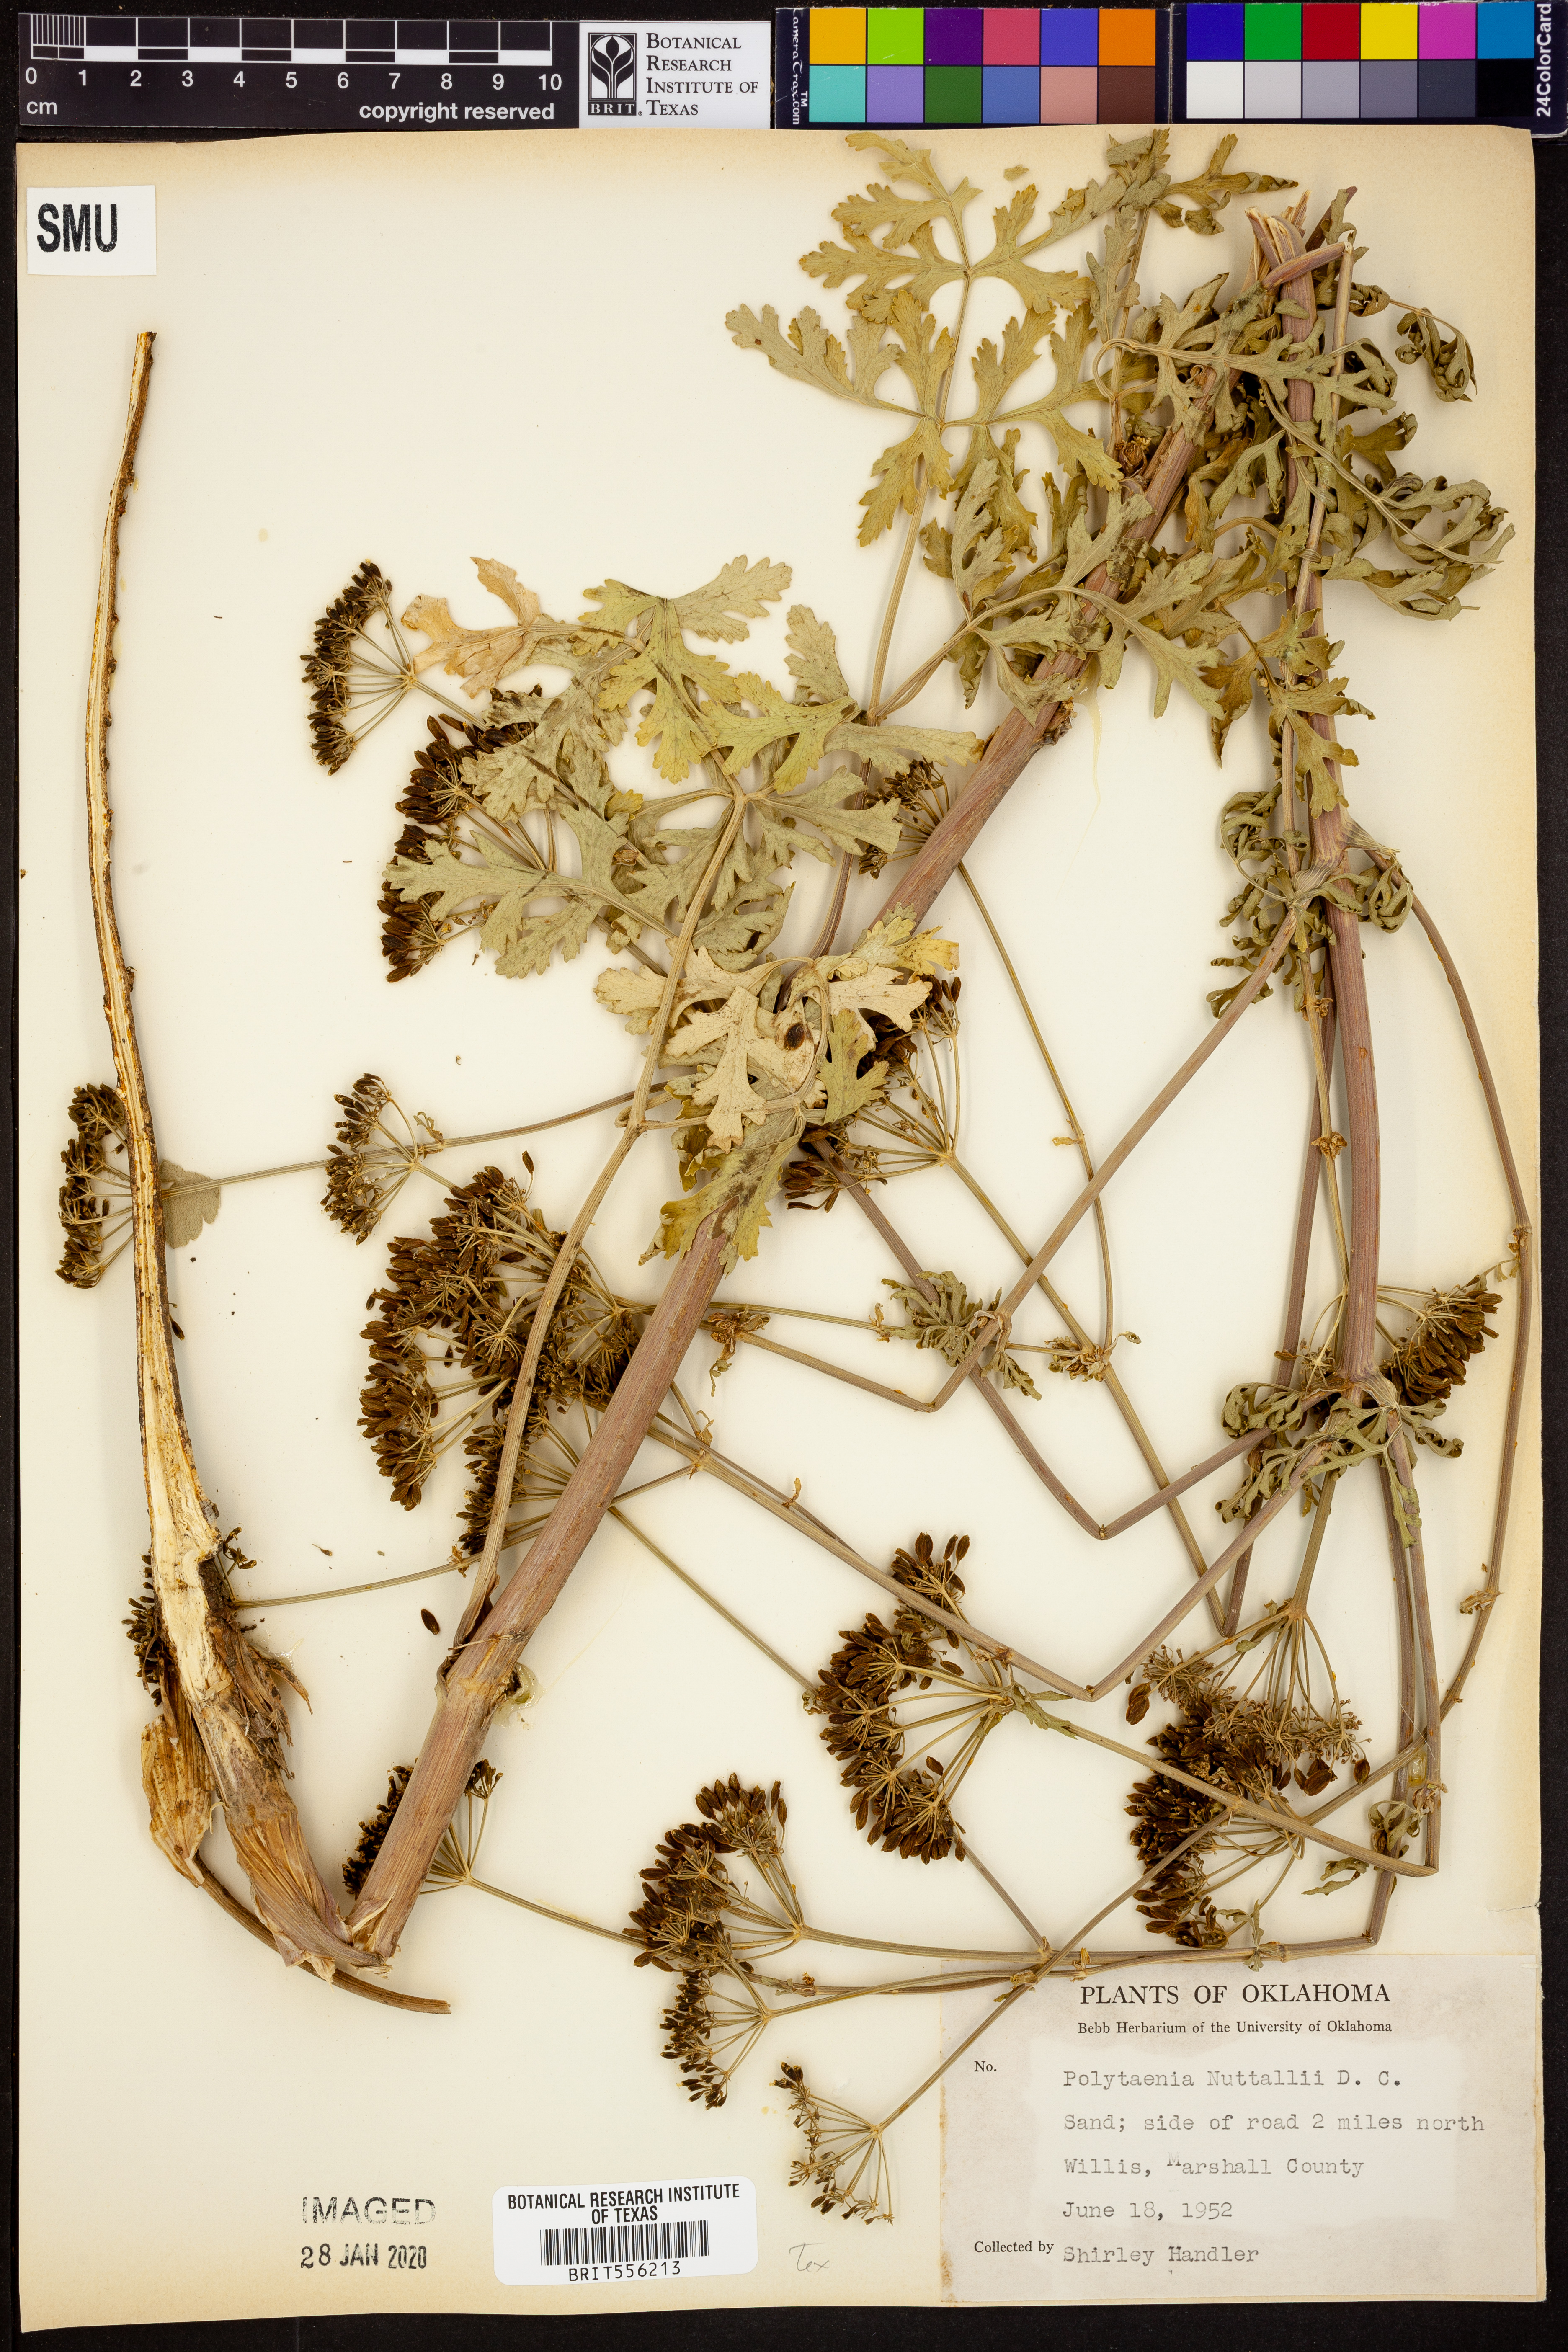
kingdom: Plantae
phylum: Tracheophyta
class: Magnoliopsida
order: Apiales
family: Apiaceae
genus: Polytaenia
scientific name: Polytaenia nuttallii
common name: Prairie-parsley
